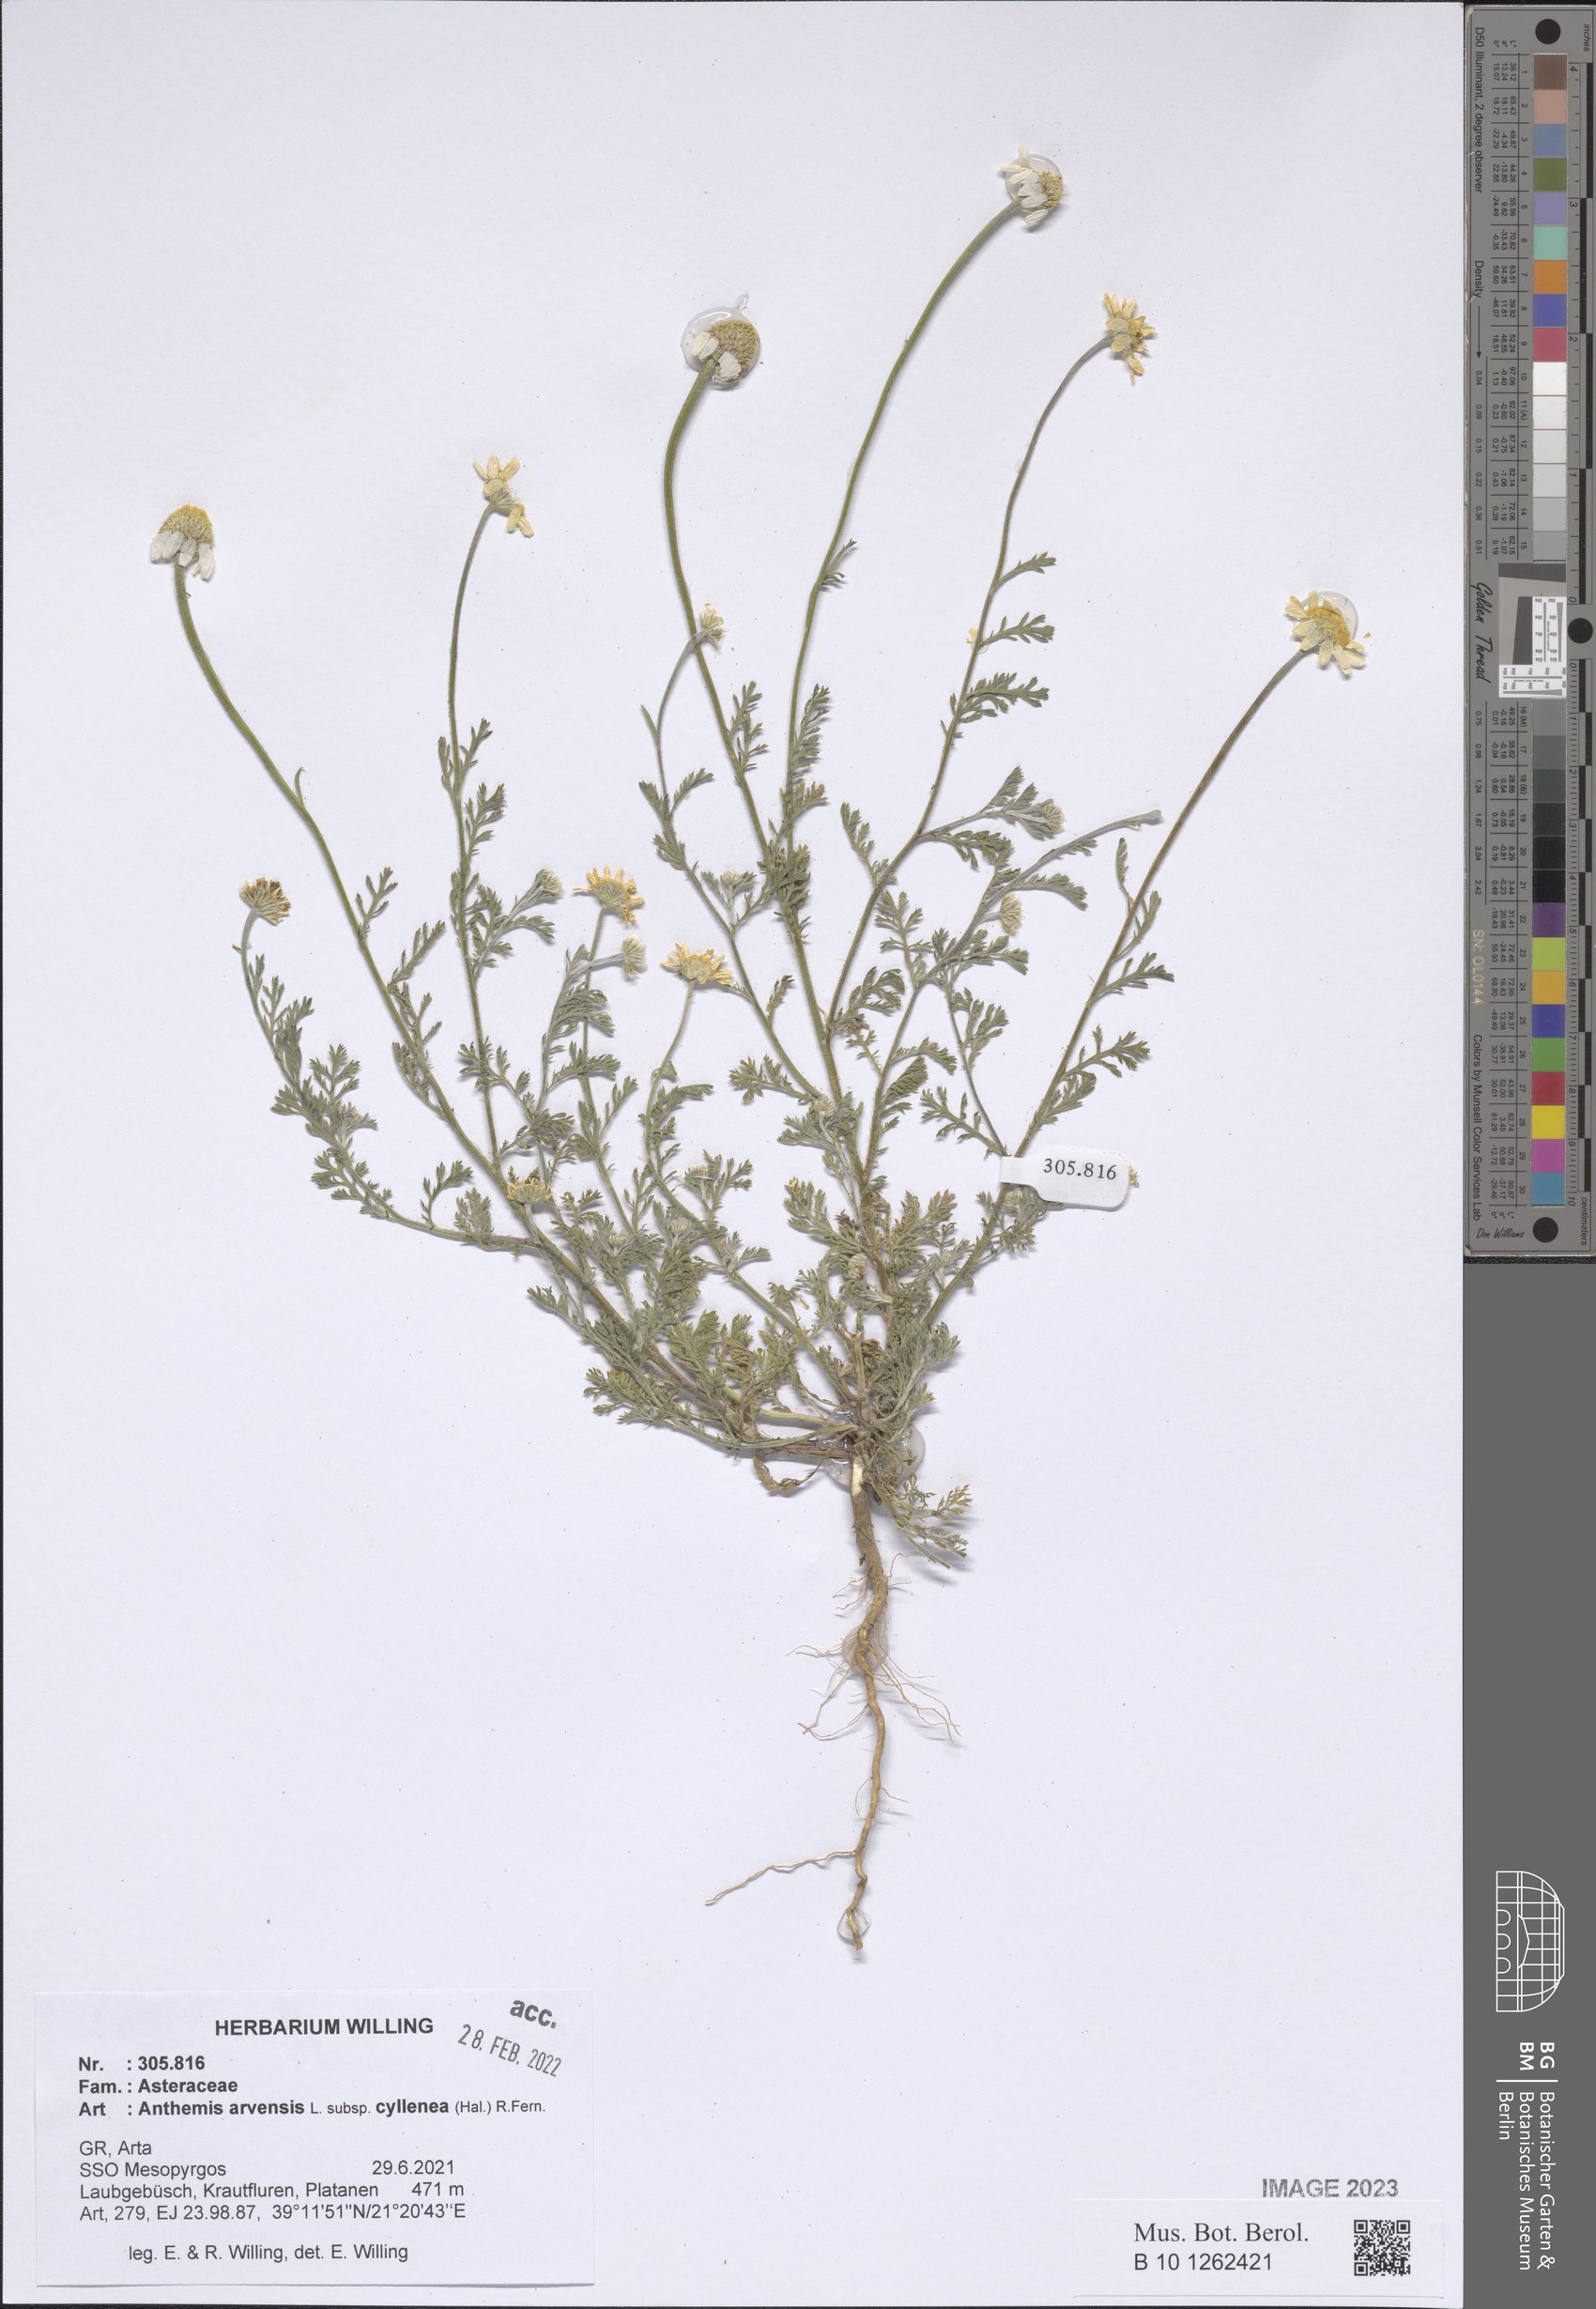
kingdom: Plantae
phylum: Tracheophyta
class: Magnoliopsida
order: Asterales
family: Asteraceae
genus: Anthemis
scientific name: Anthemis arvensis
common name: Corn chamomile
